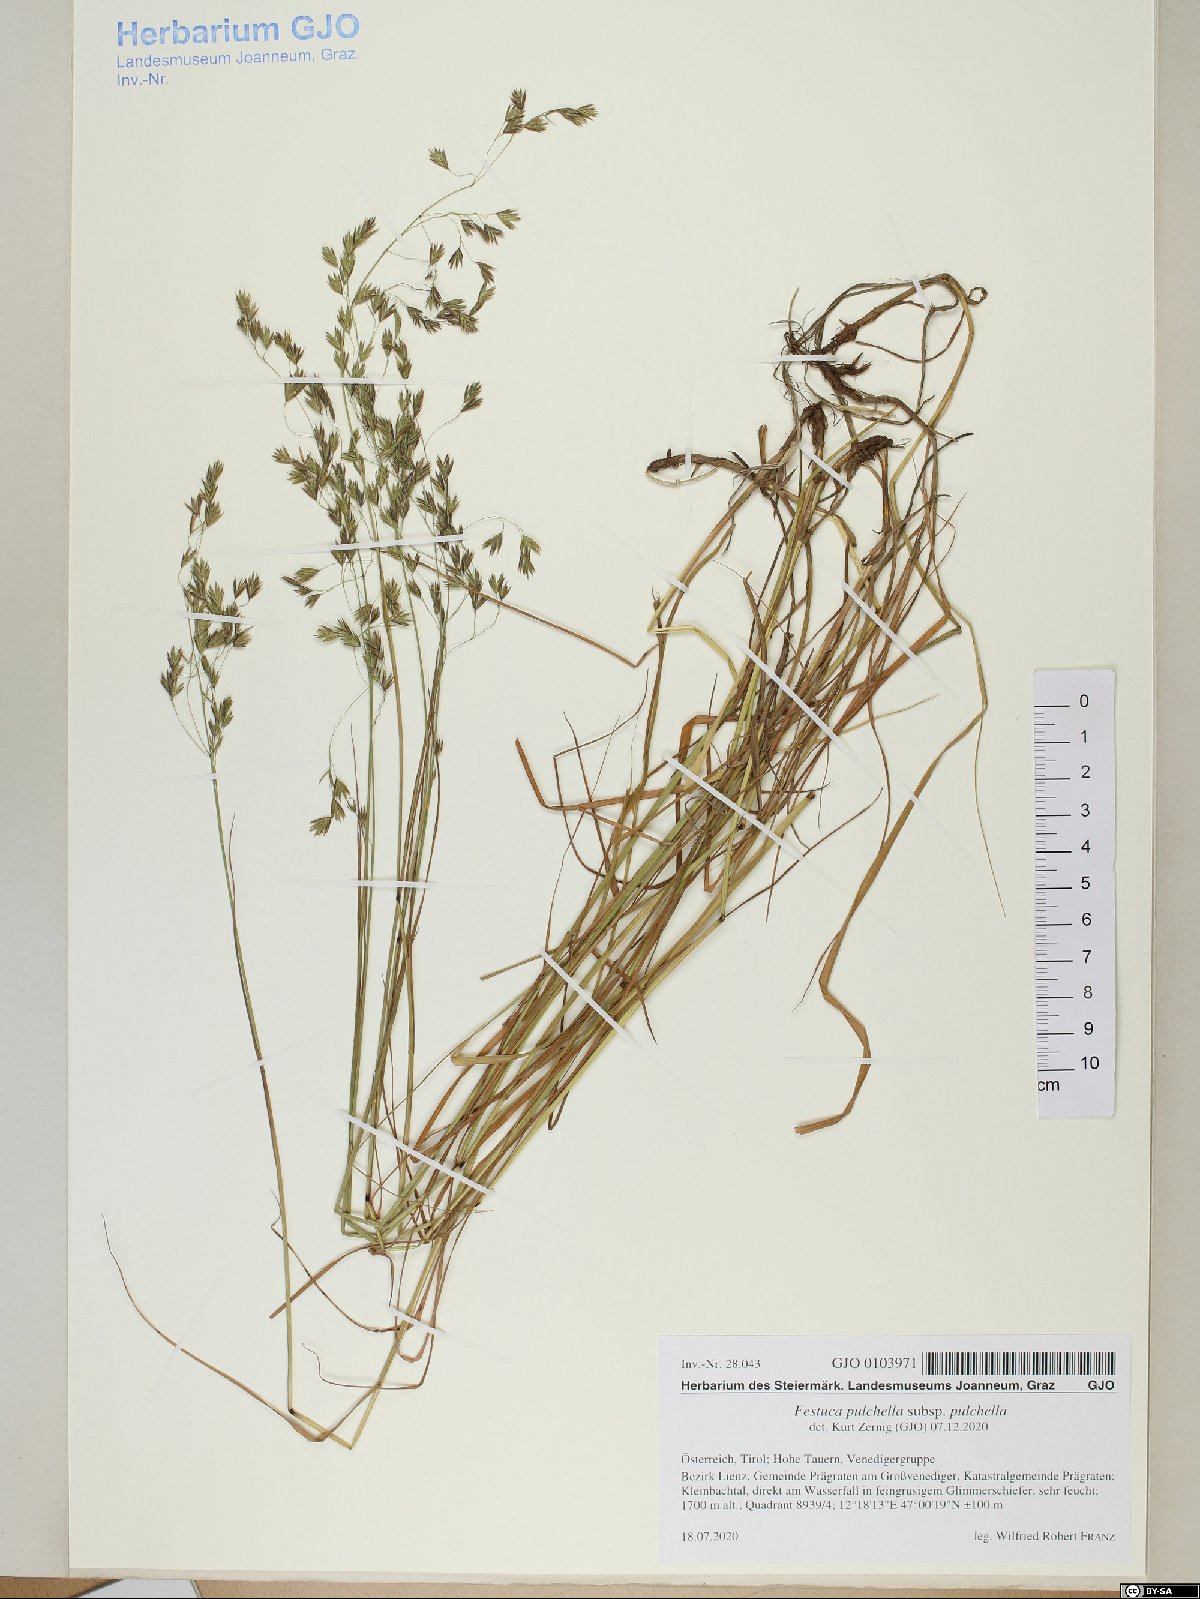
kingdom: Plantae
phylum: Tracheophyta
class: Liliopsida
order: Poales
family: Poaceae
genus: Festuca
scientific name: Festuca pulchella
